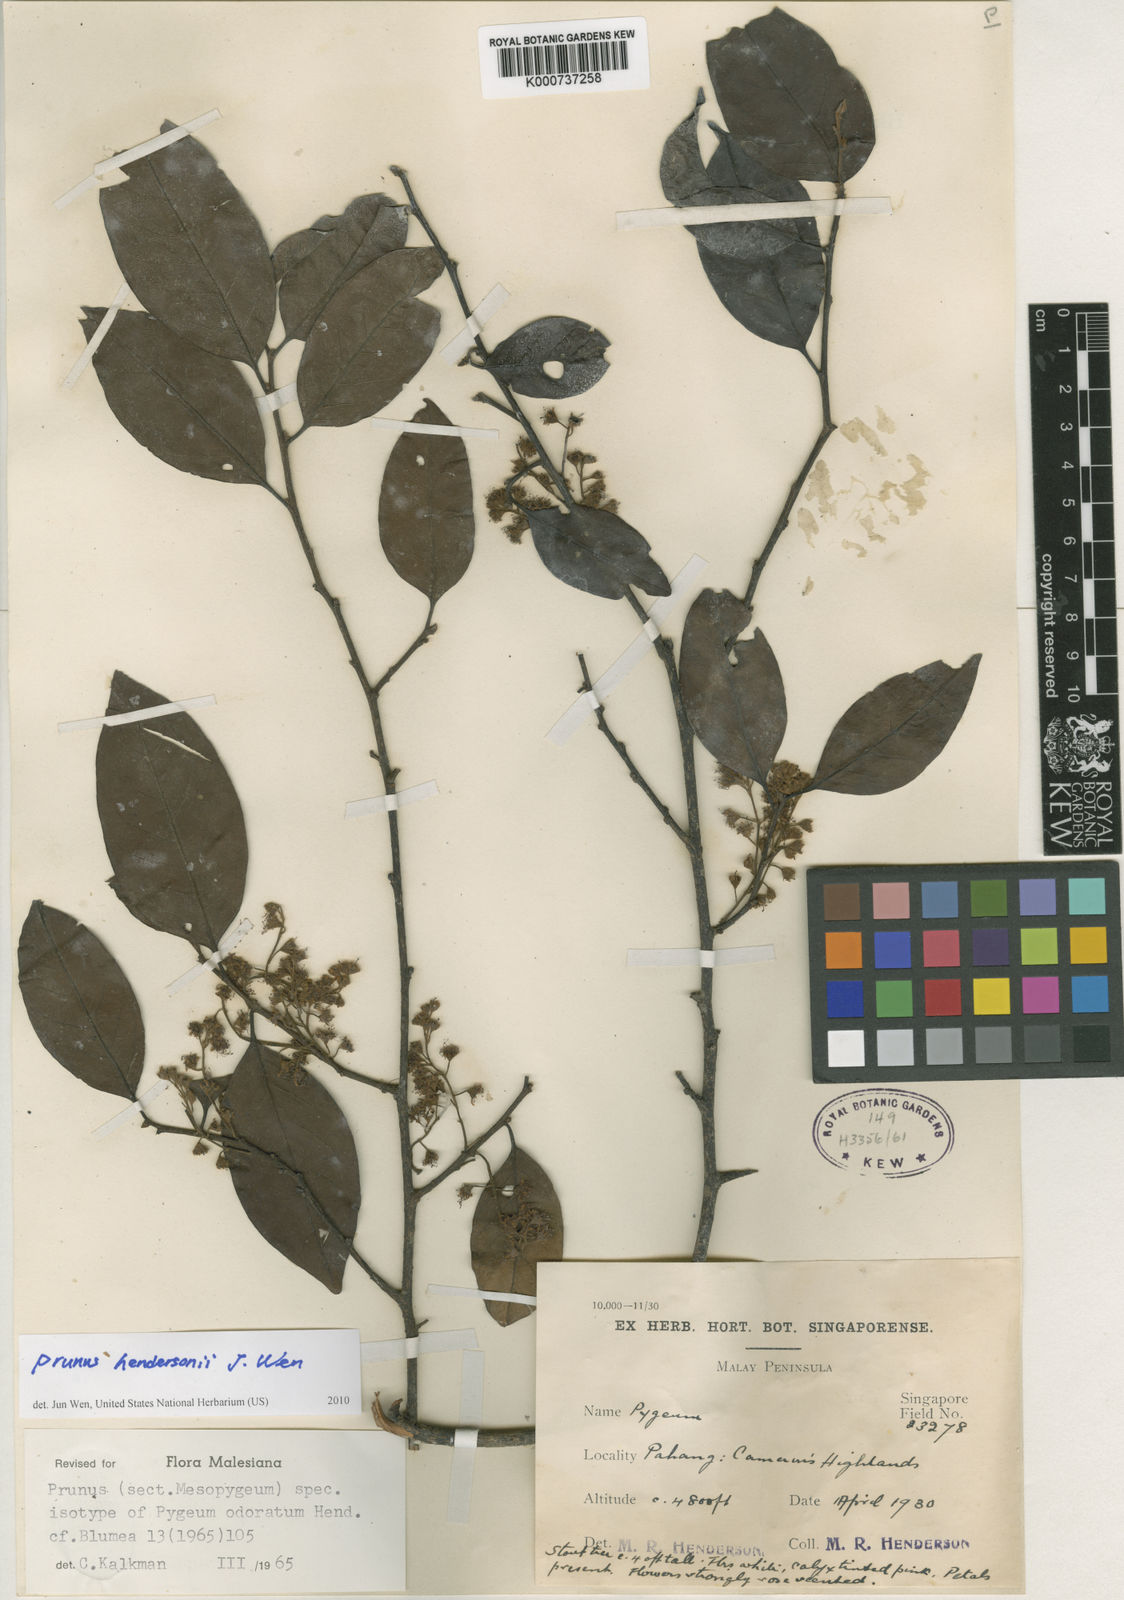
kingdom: Plantae
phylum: Tracheophyta
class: Magnoliopsida
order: Rosales
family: Rosaceae
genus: Prunus
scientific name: Prunus
